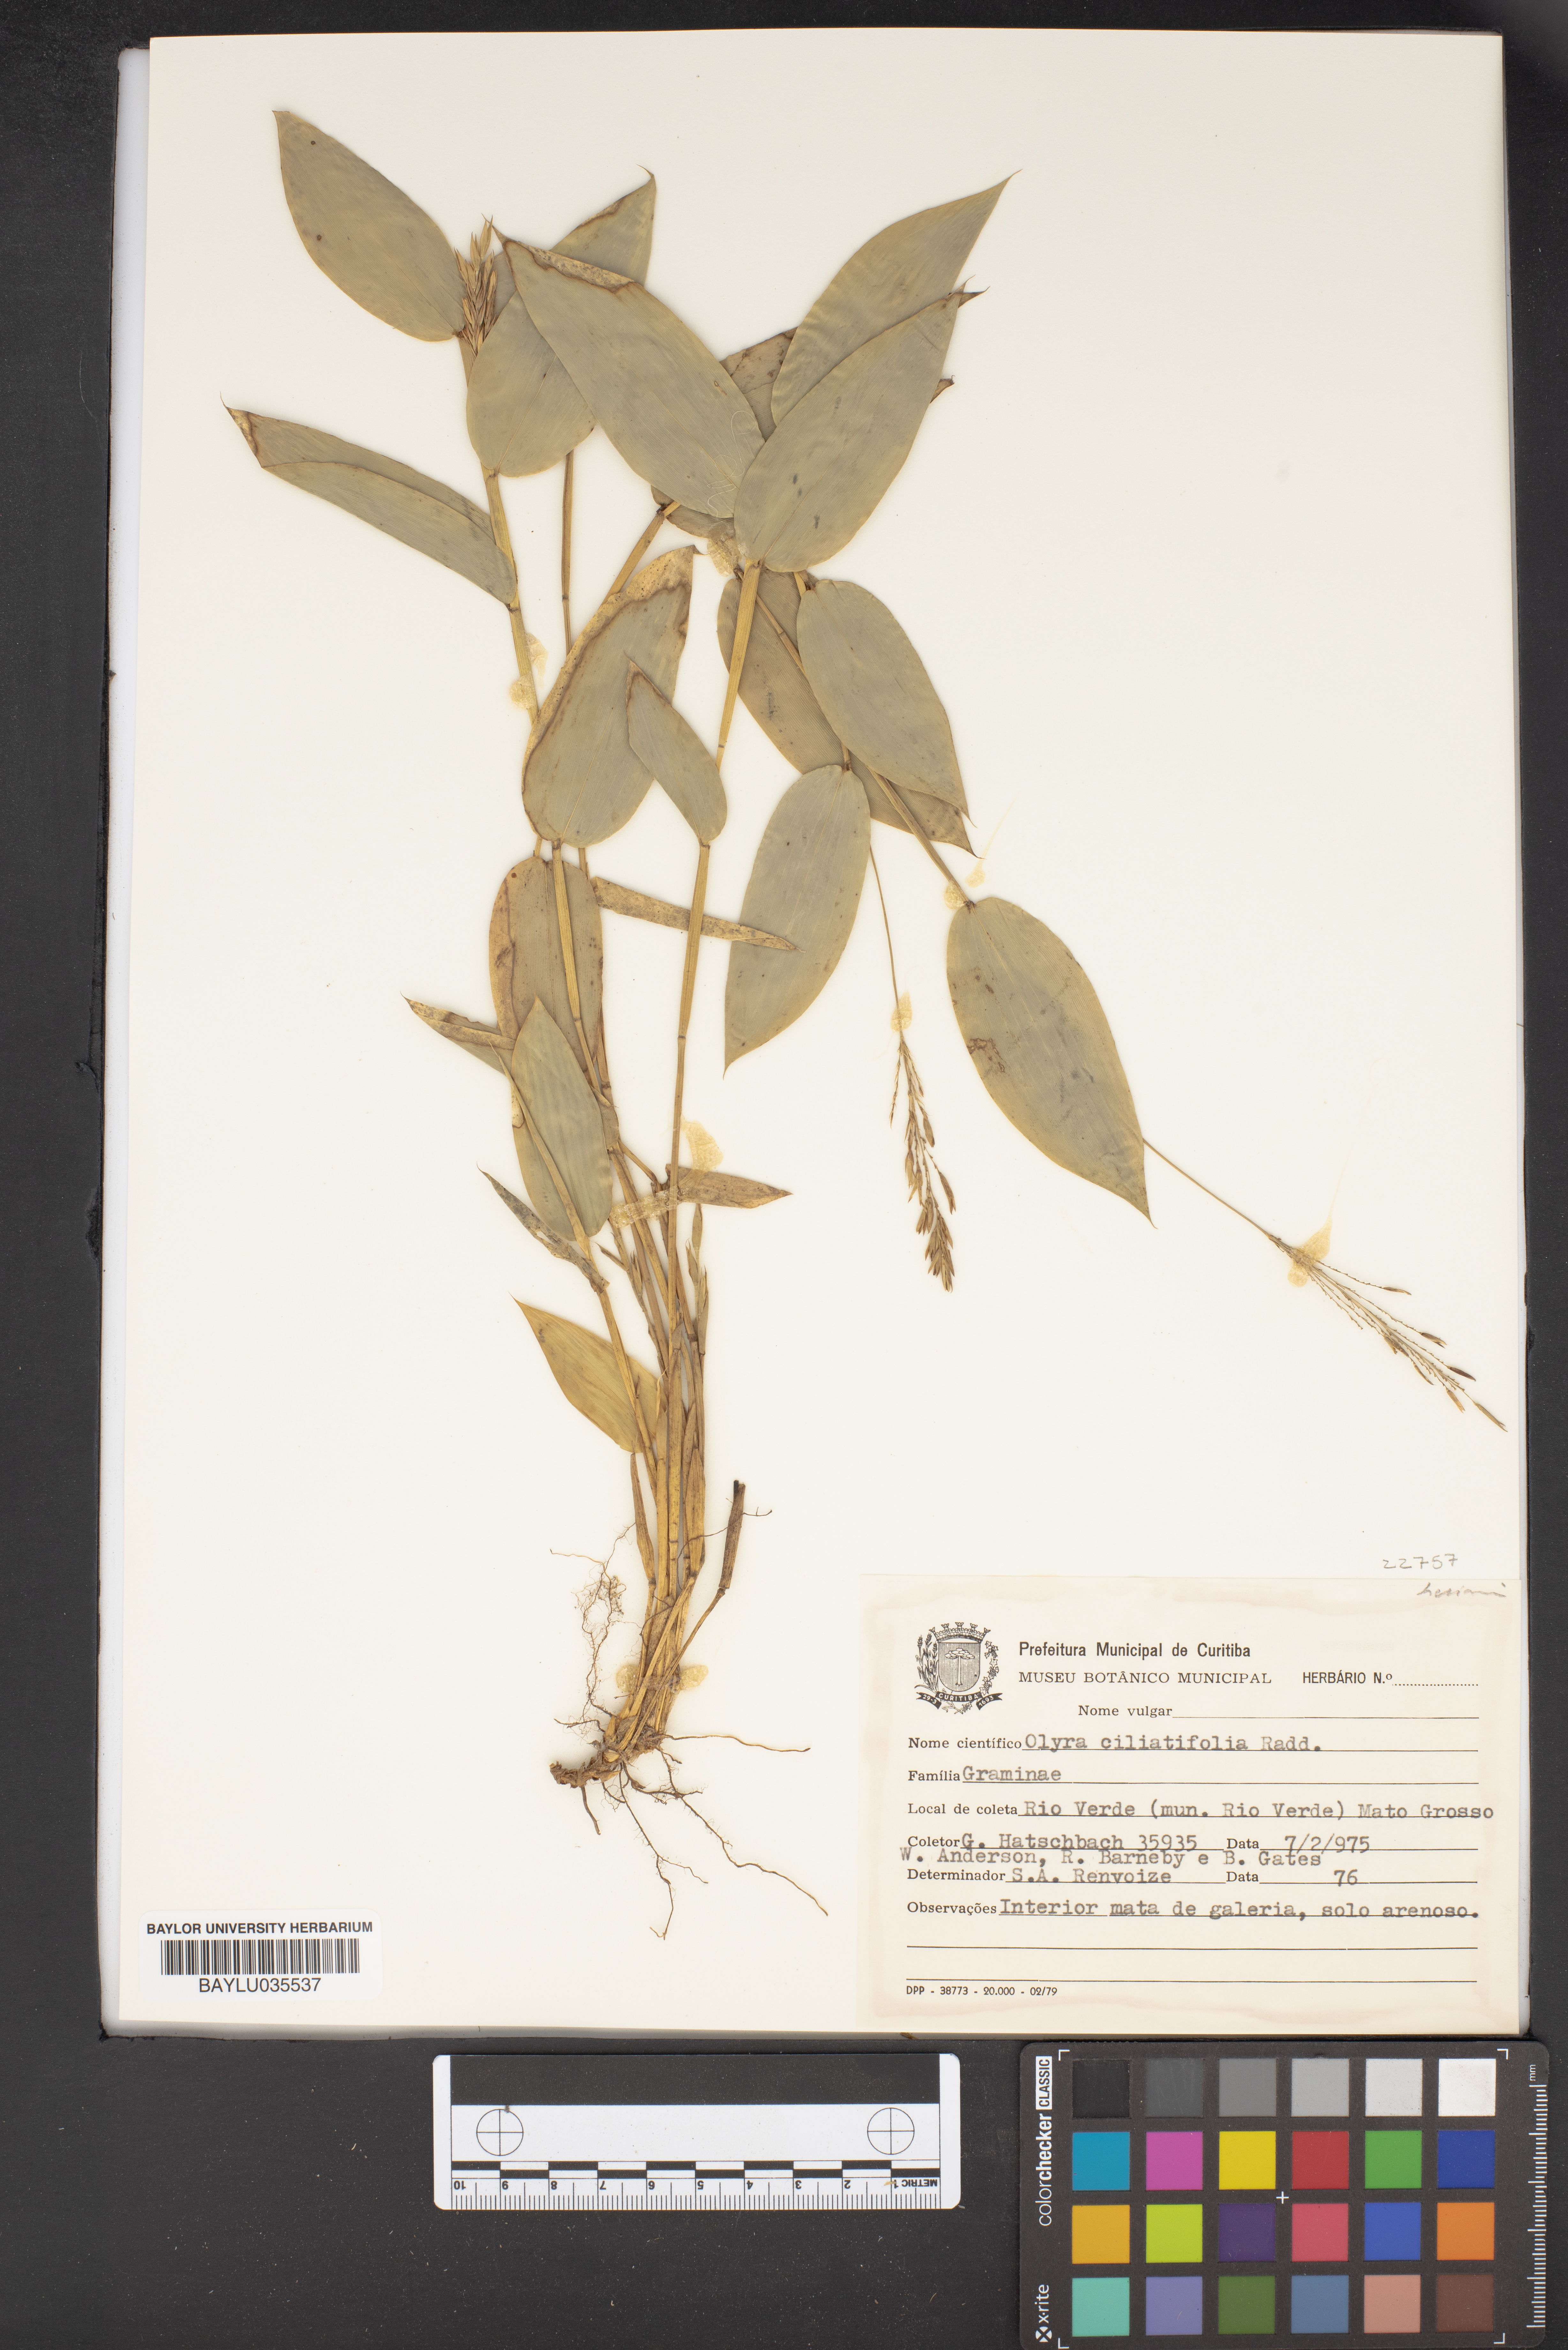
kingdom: Plantae
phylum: Tracheophyta
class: Liliopsida
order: Poales
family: Poaceae
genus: Olyra
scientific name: Olyra ciliatifolia
